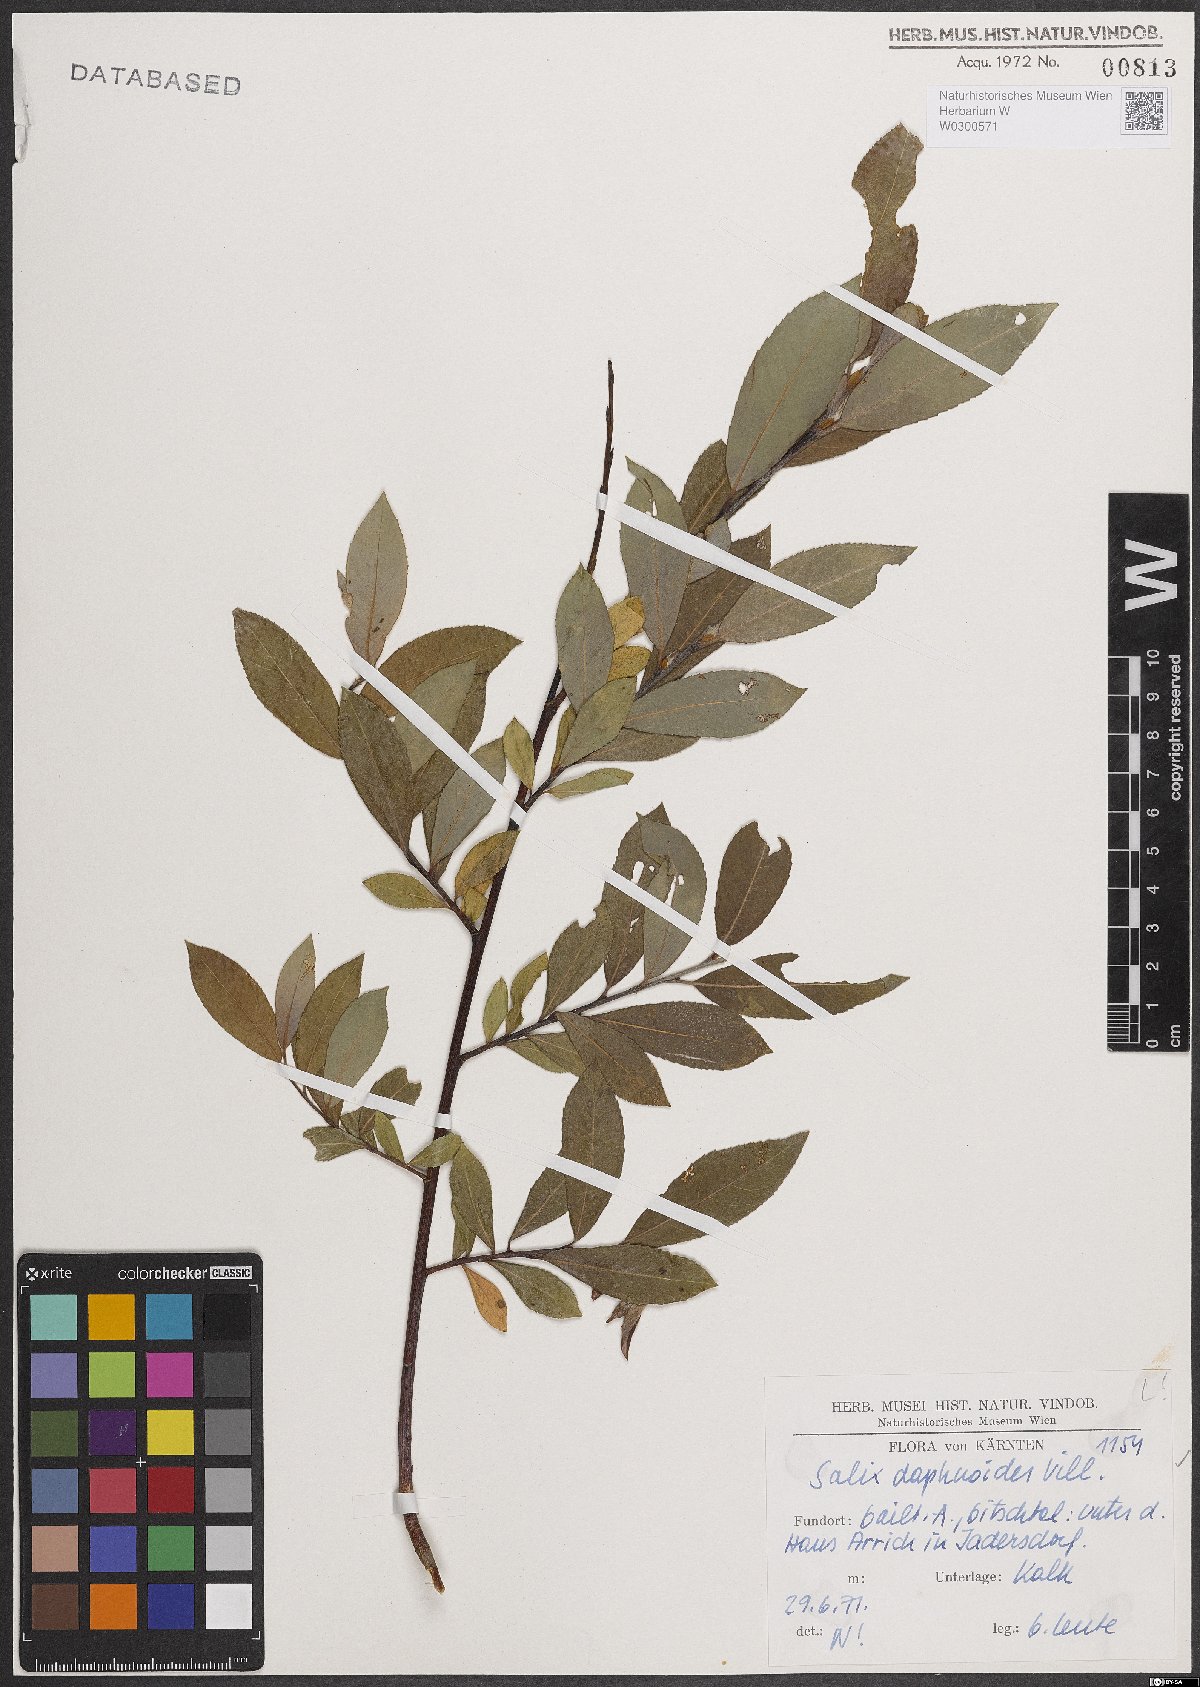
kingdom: Plantae
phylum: Tracheophyta
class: Magnoliopsida
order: Malpighiales
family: Salicaceae
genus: Salix
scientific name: Salix daphnoides
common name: European violet-willow
